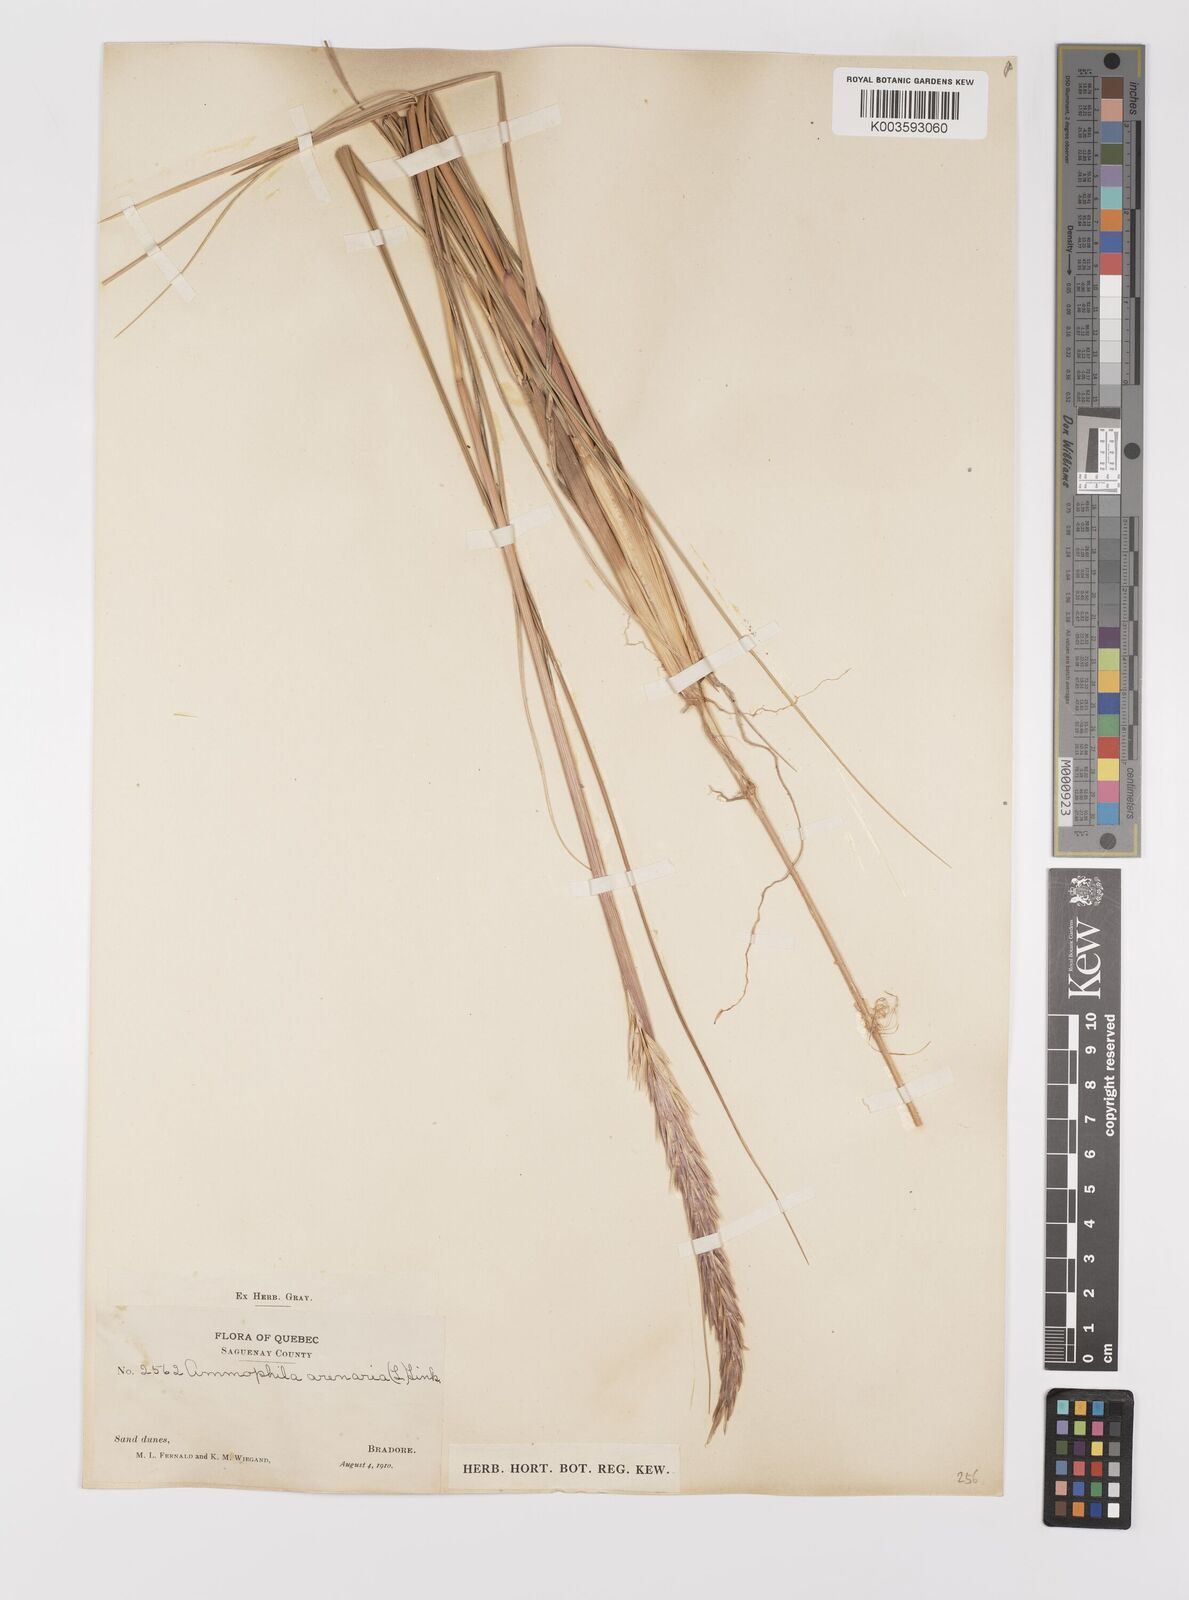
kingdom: Plantae
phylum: Tracheophyta
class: Liliopsida
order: Poales
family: Poaceae
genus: Calamagrostis
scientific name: Calamagrostis breviligulata
